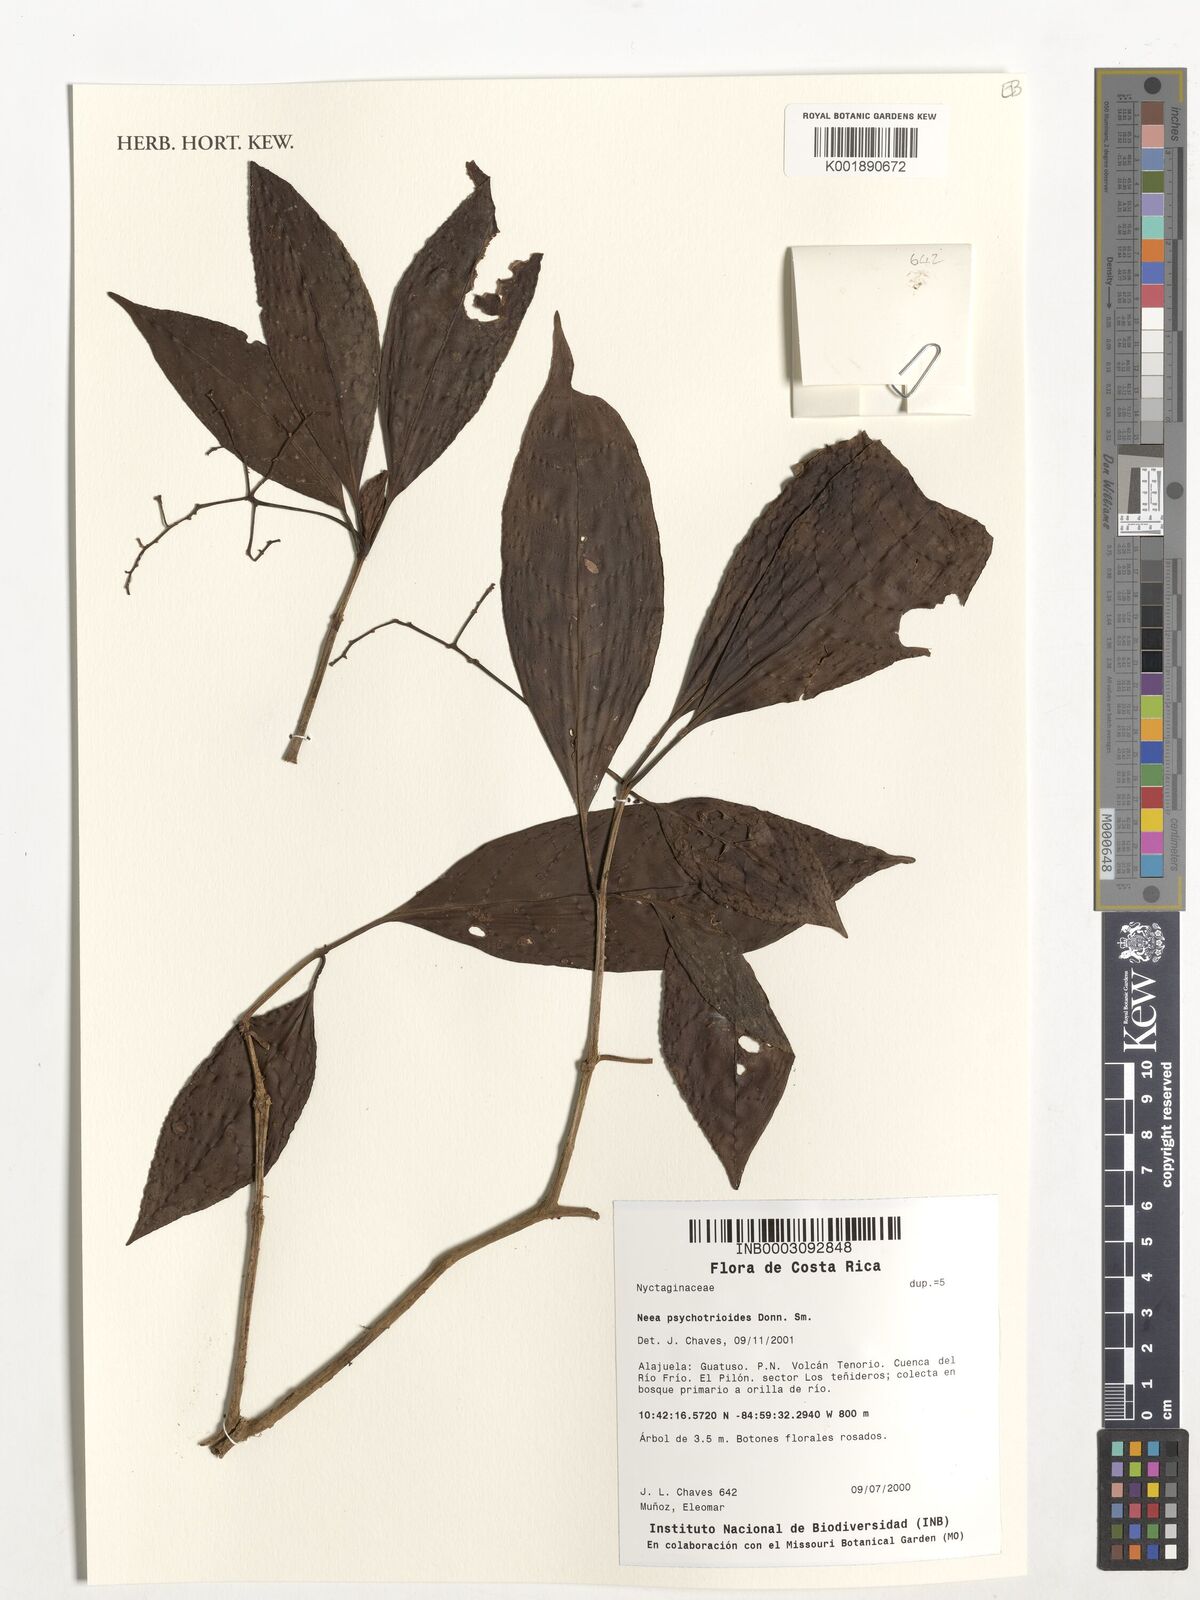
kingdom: Plantae
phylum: Tracheophyta
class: Magnoliopsida
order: Caryophyllales
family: Nyctaginaceae
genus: Neea
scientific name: Neea psychotrioides
